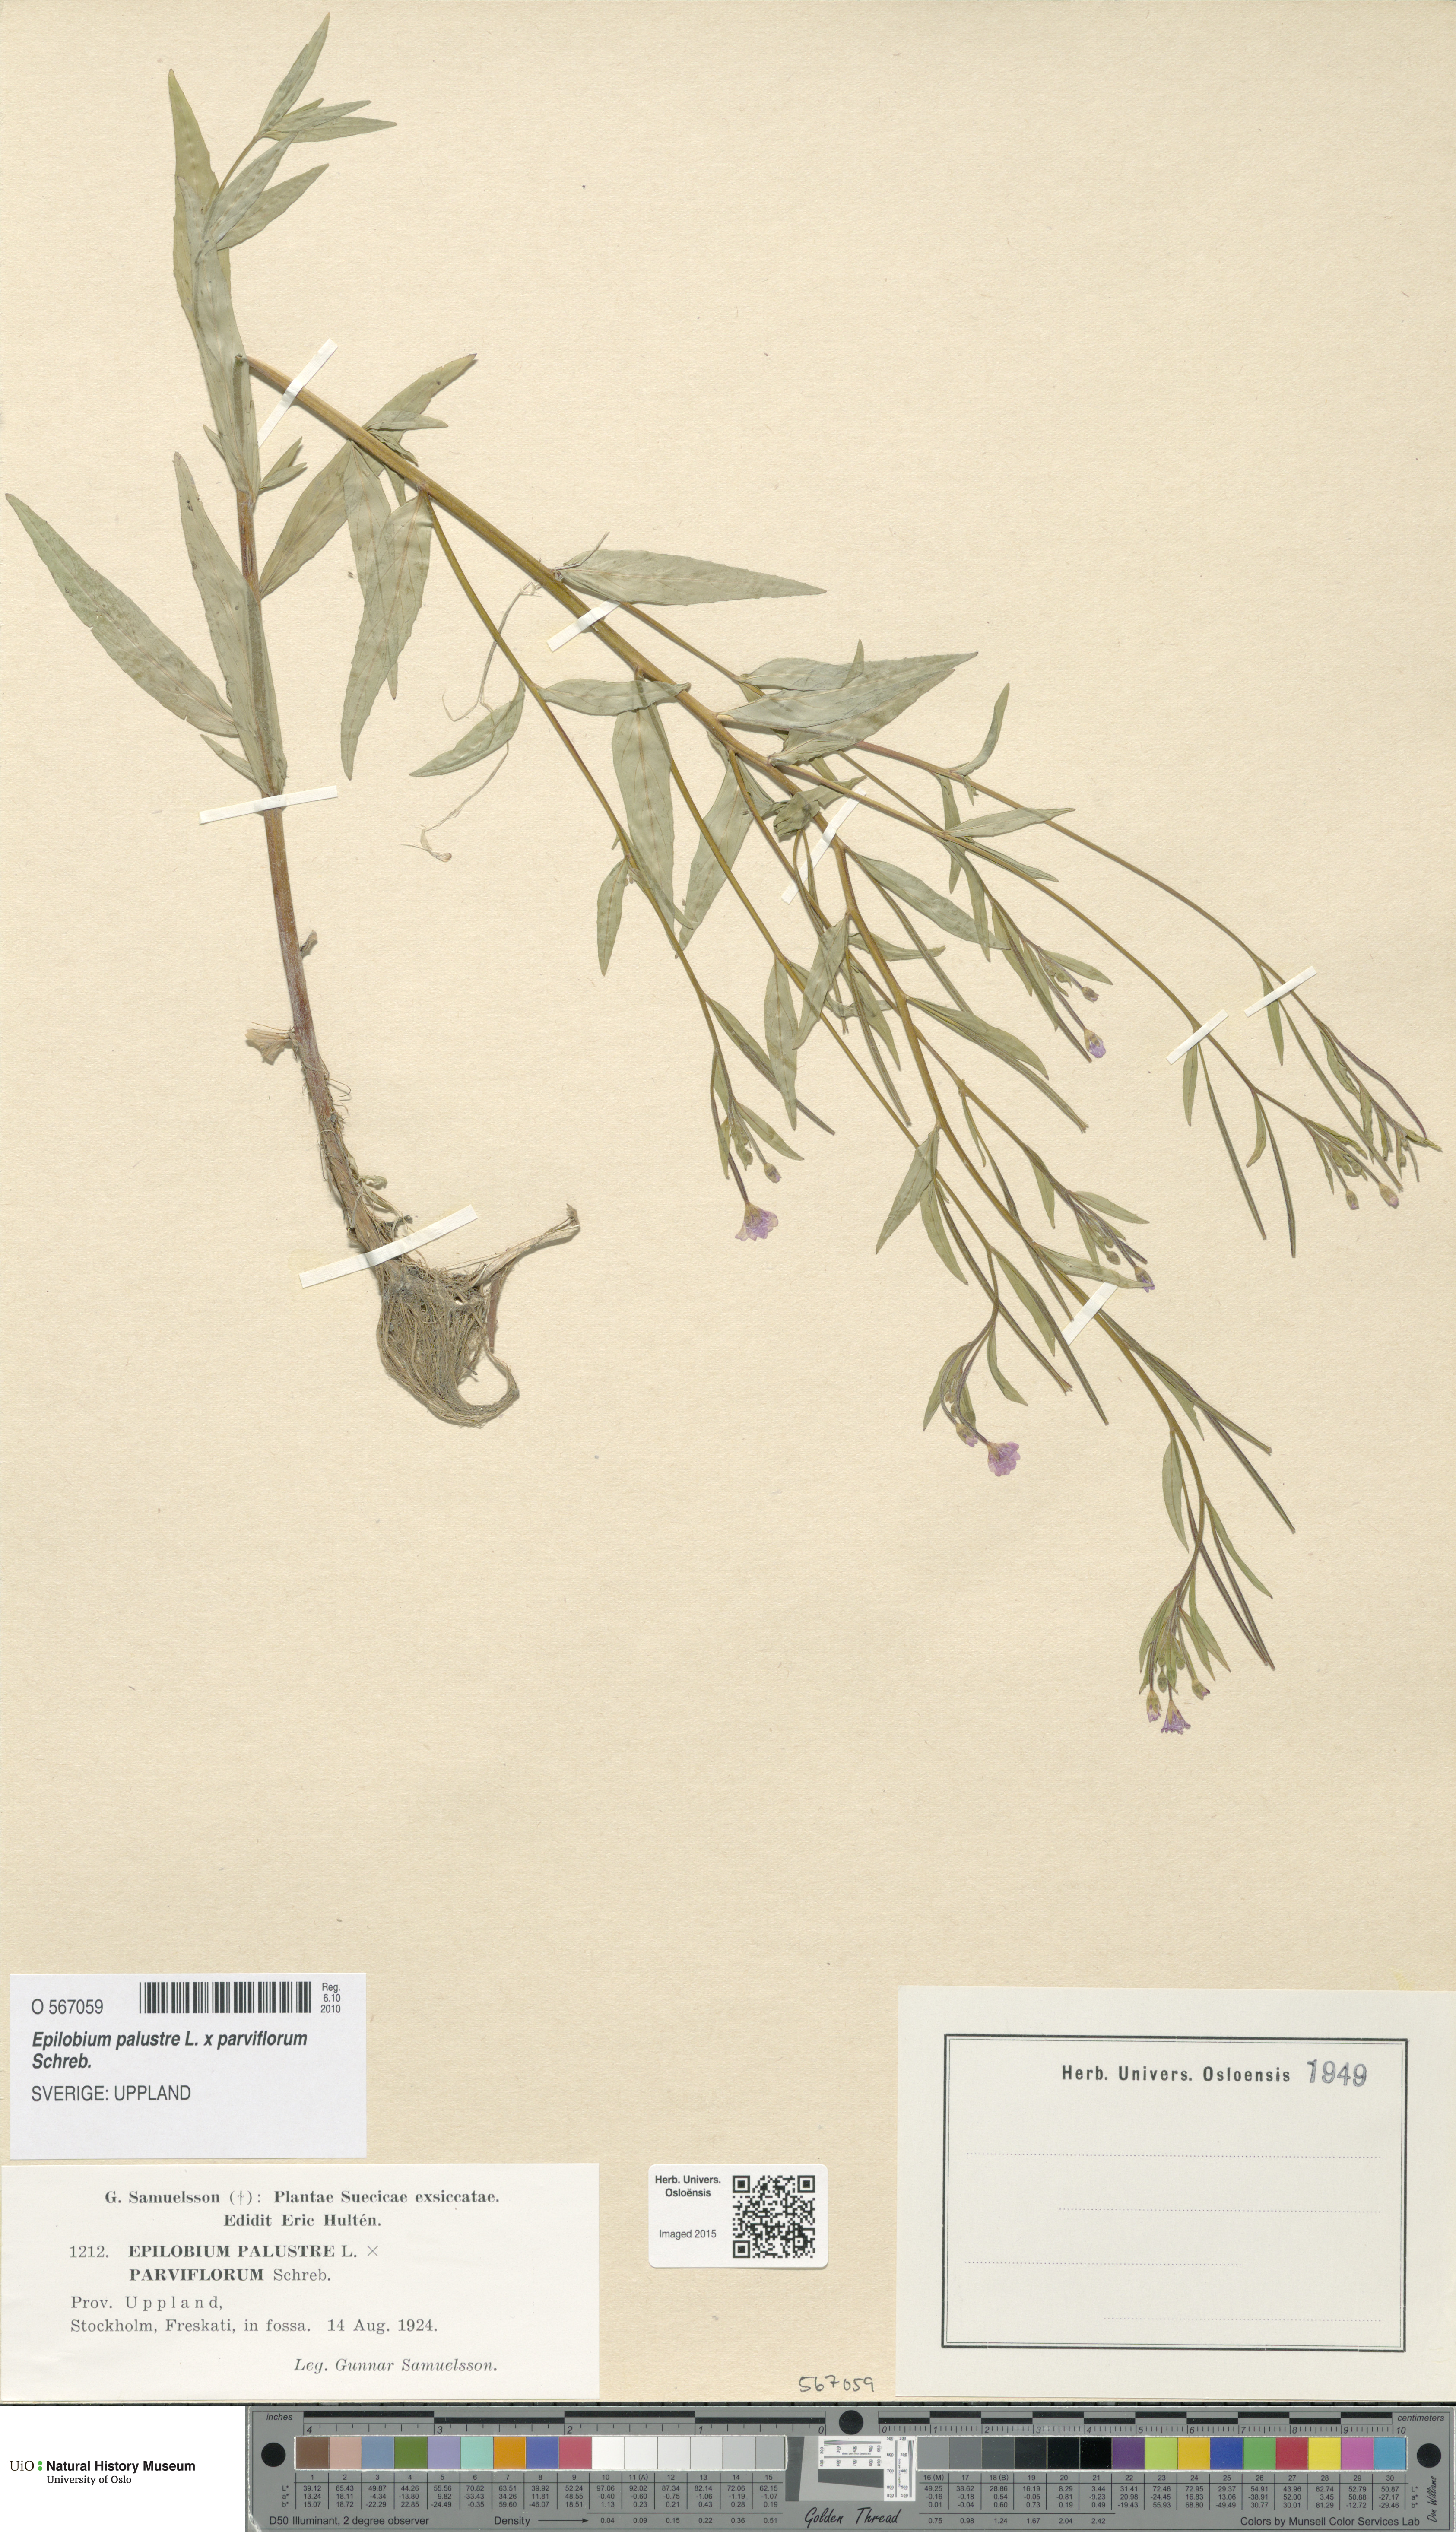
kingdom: Plantae
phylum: Tracheophyta
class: Magnoliopsida
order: Myrtales
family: Onagraceae
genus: Epilobium
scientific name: Epilobium
